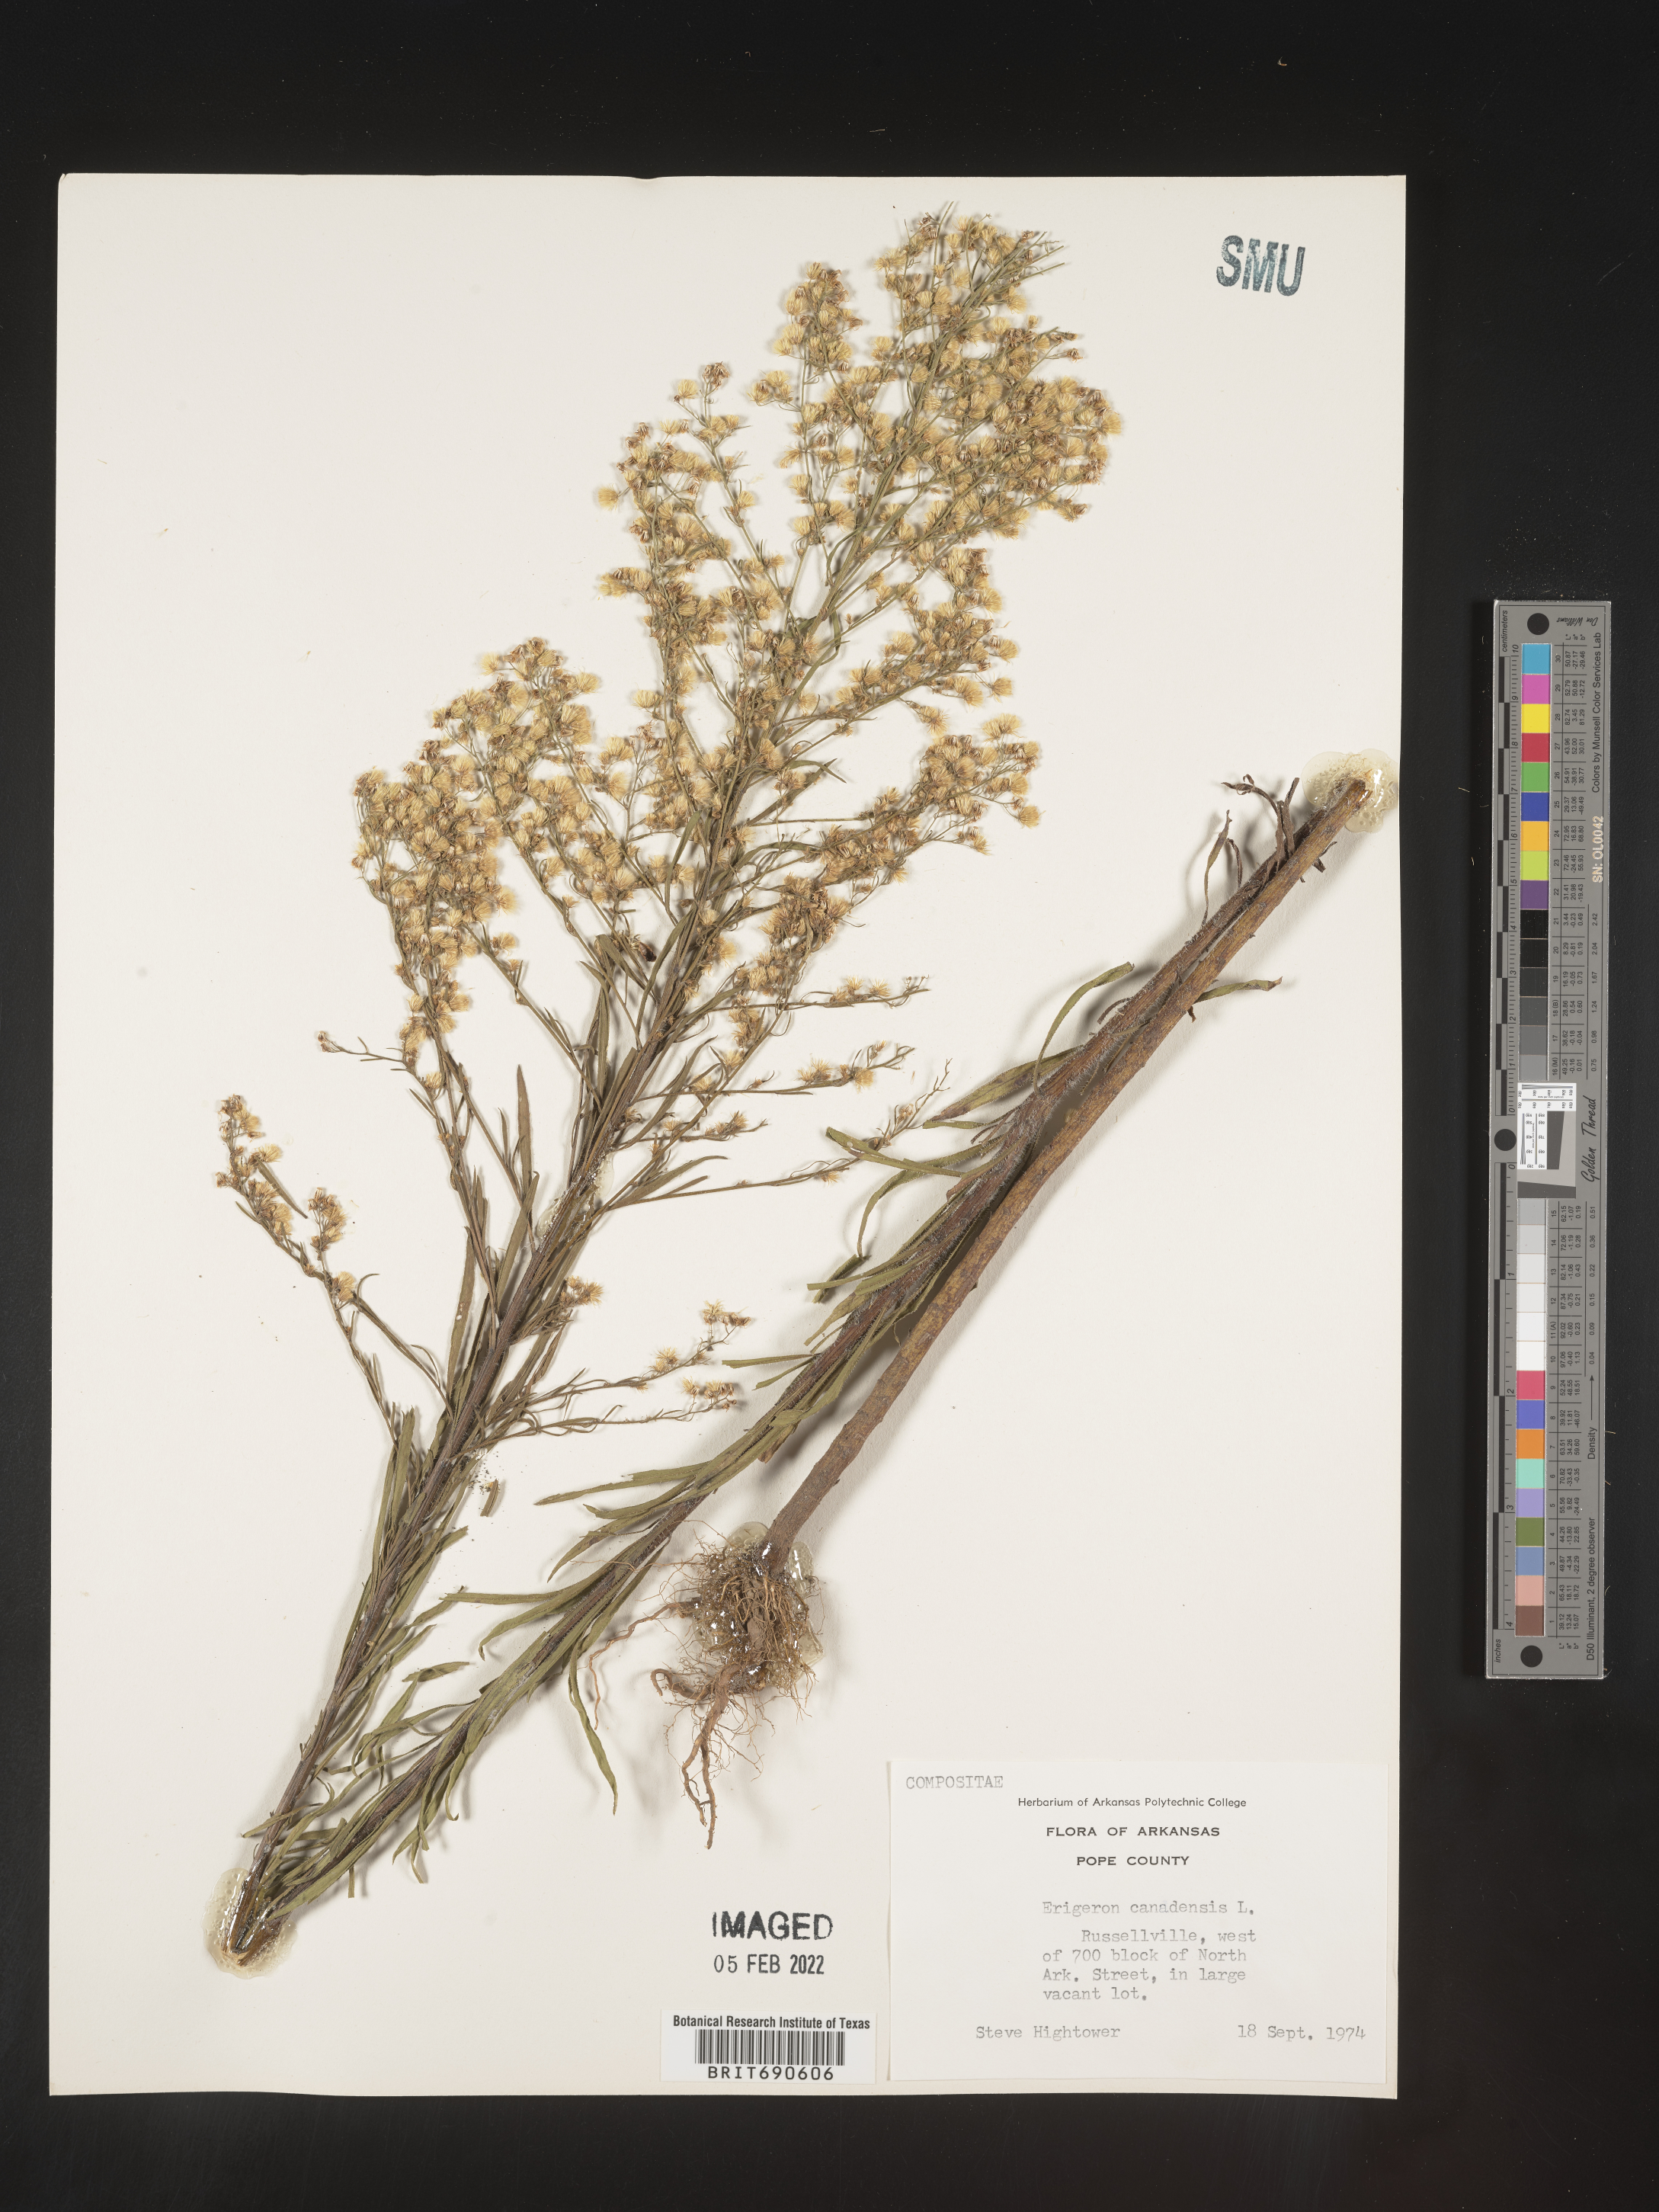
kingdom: Plantae
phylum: Tracheophyta
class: Magnoliopsida
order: Asterales
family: Asteraceae
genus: Erigeron
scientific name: Erigeron canadensis
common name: Canadian fleabane
